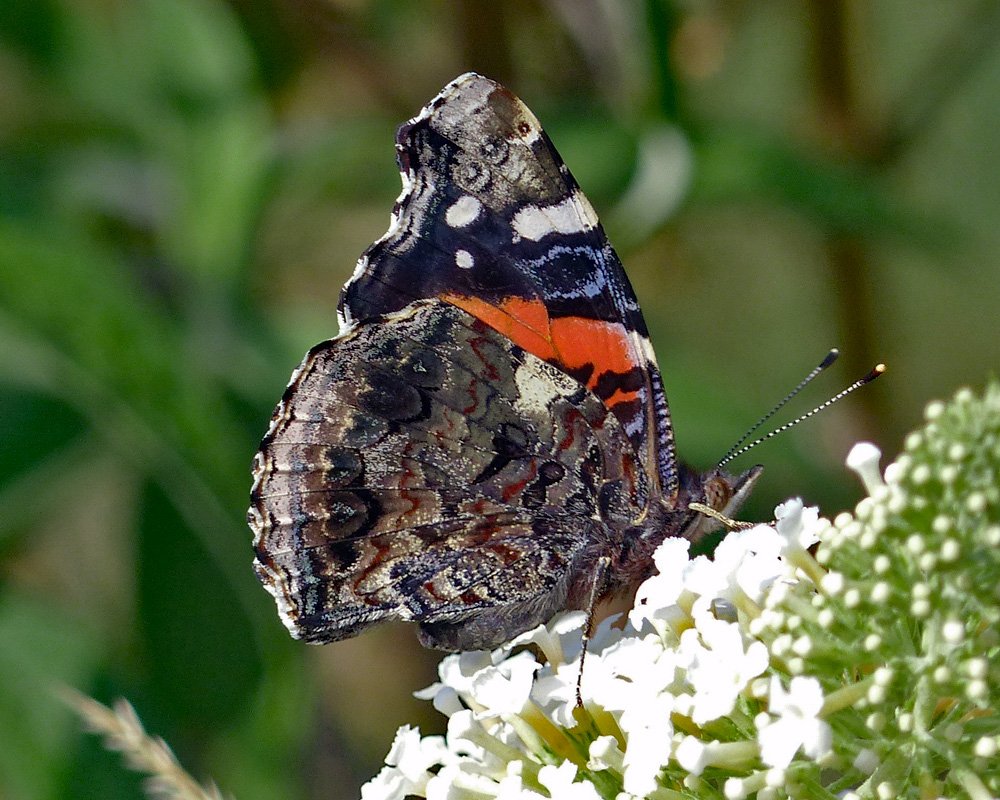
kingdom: Animalia
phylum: Arthropoda
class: Insecta
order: Lepidoptera
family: Nymphalidae
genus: Vanessa
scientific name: Vanessa atalanta
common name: Red Admiral
